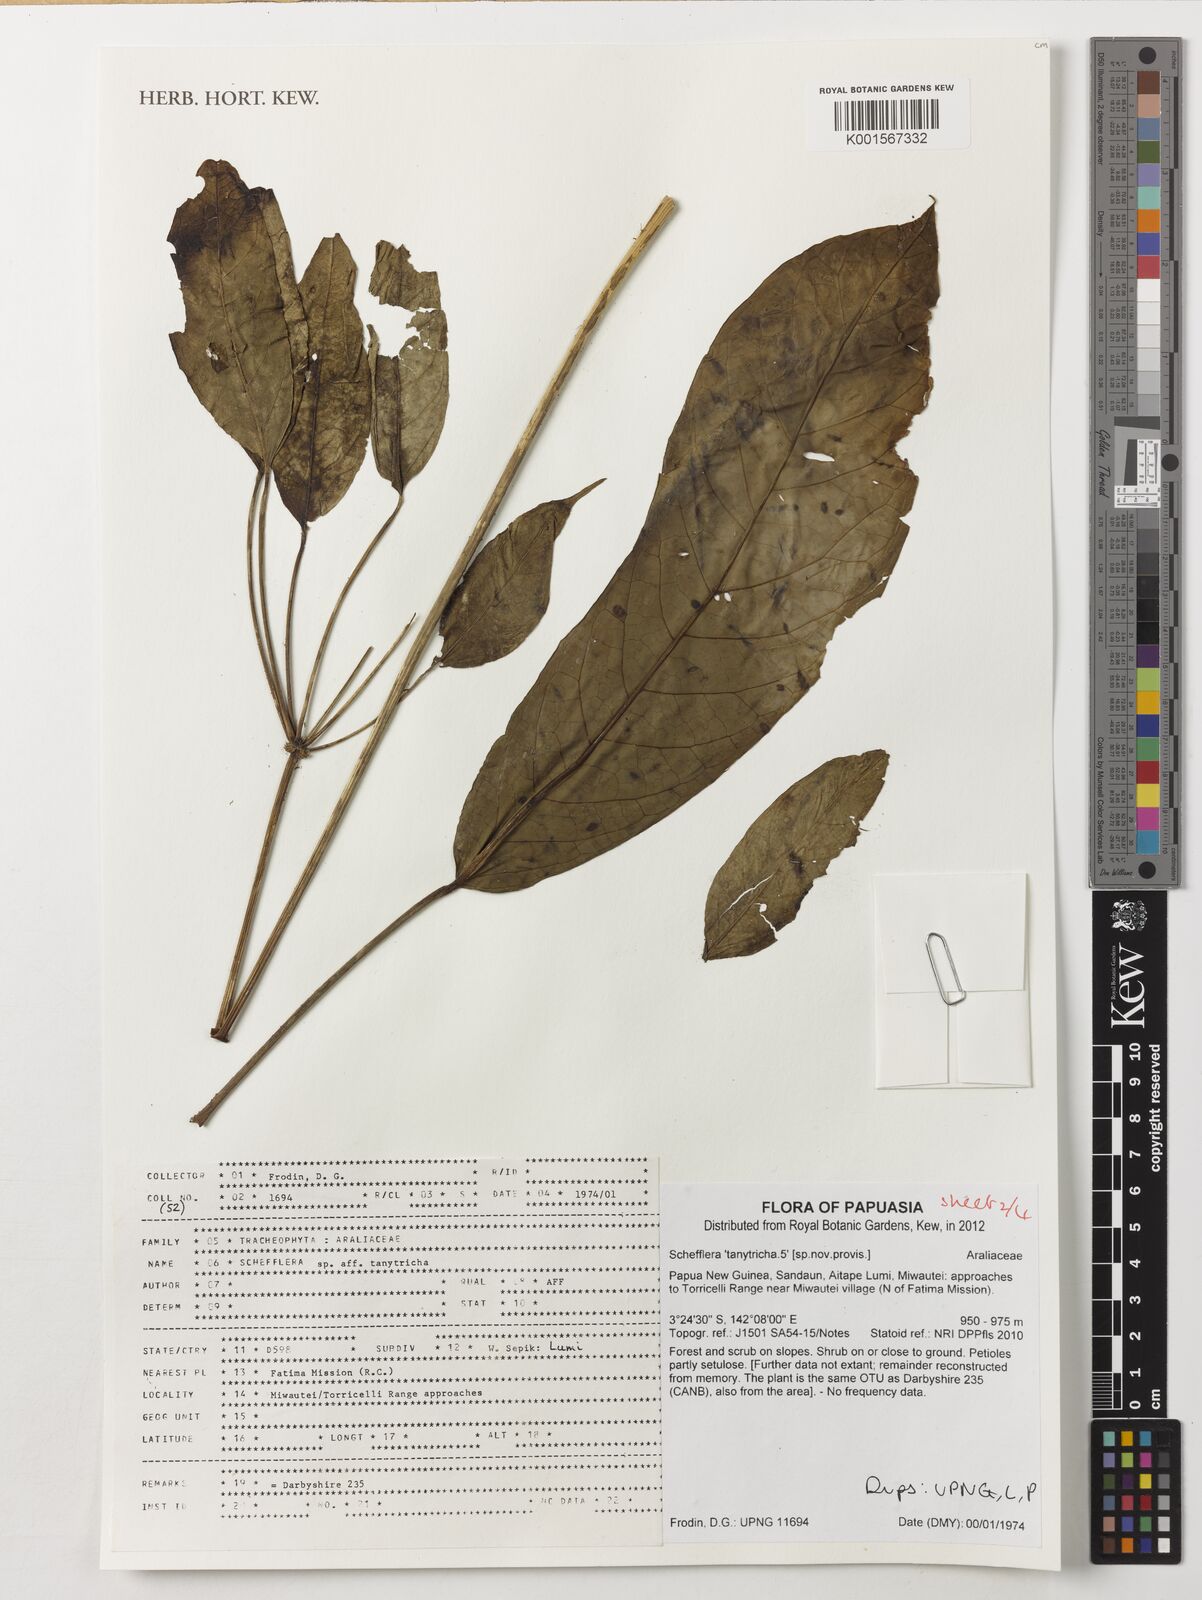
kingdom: Plantae
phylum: Tracheophyta
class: Magnoliopsida
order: Apiales
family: Araliaceae
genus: Heptapleurum
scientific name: Heptapleurum tanytrichum
